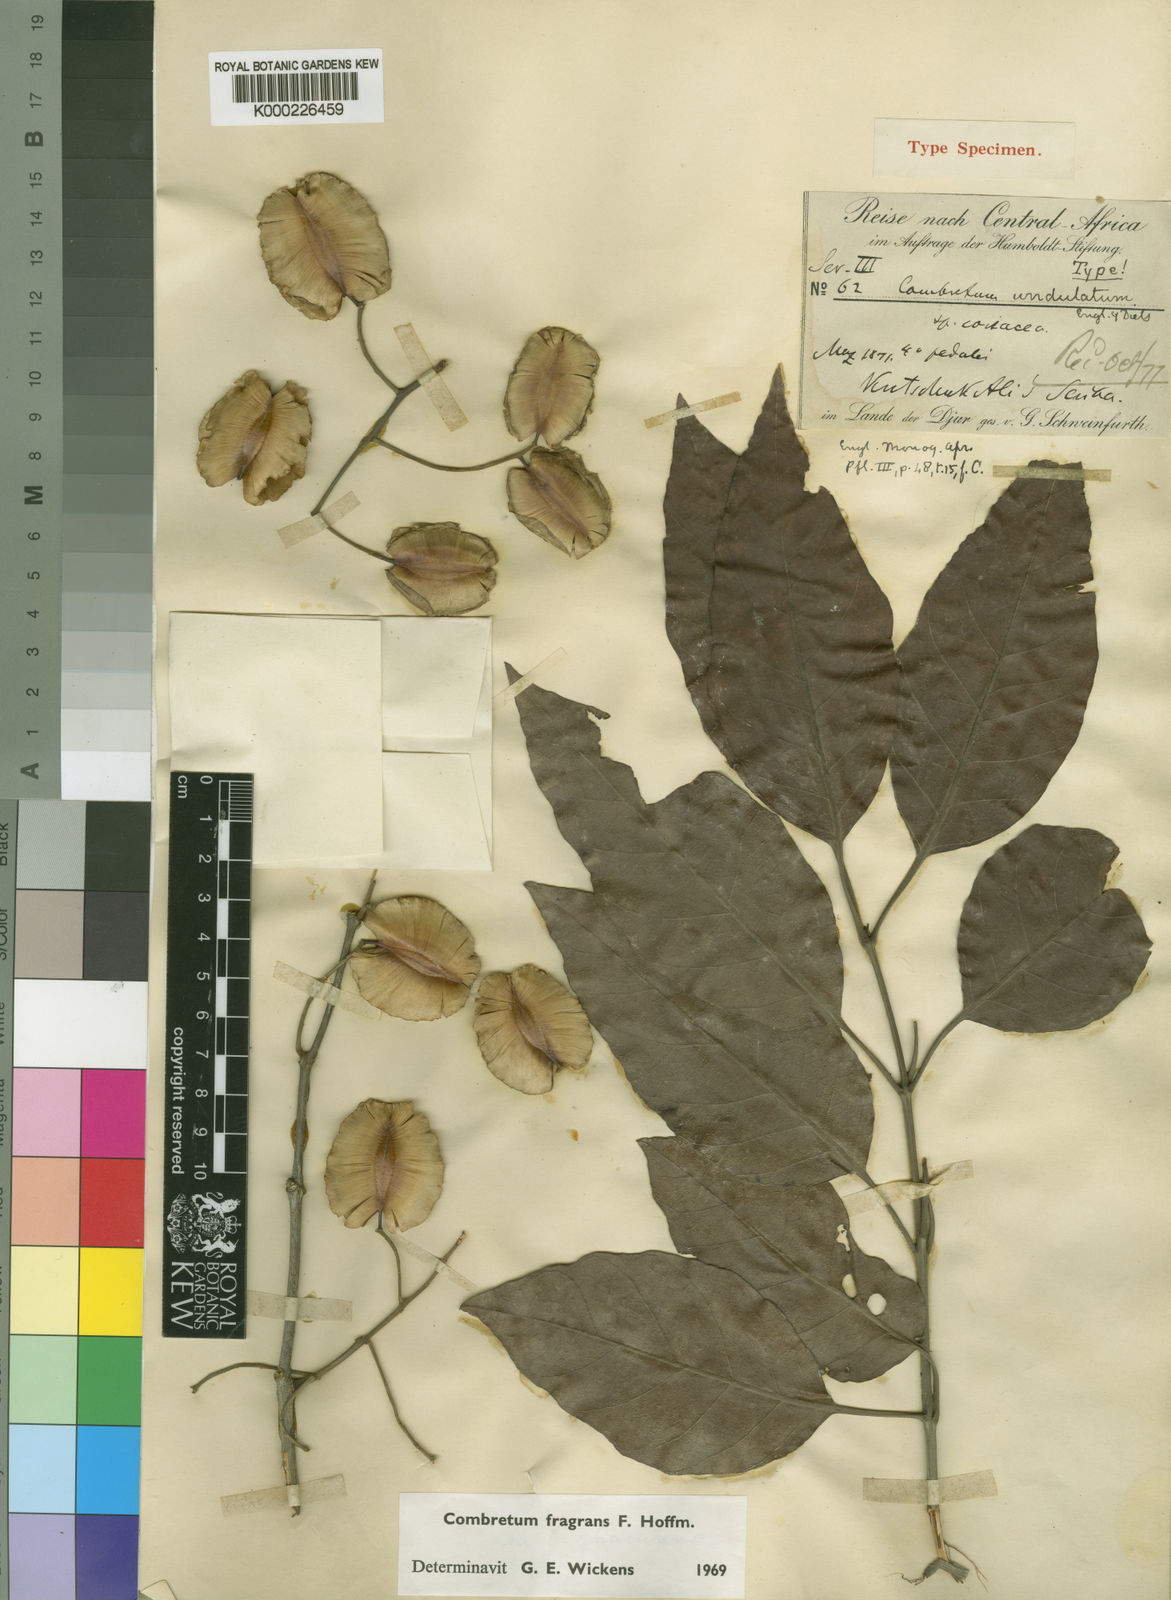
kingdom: Plantae
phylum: Tracheophyta
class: Magnoliopsida
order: Myrtales
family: Combretaceae
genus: Combretum
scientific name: Combretum adenogonium
